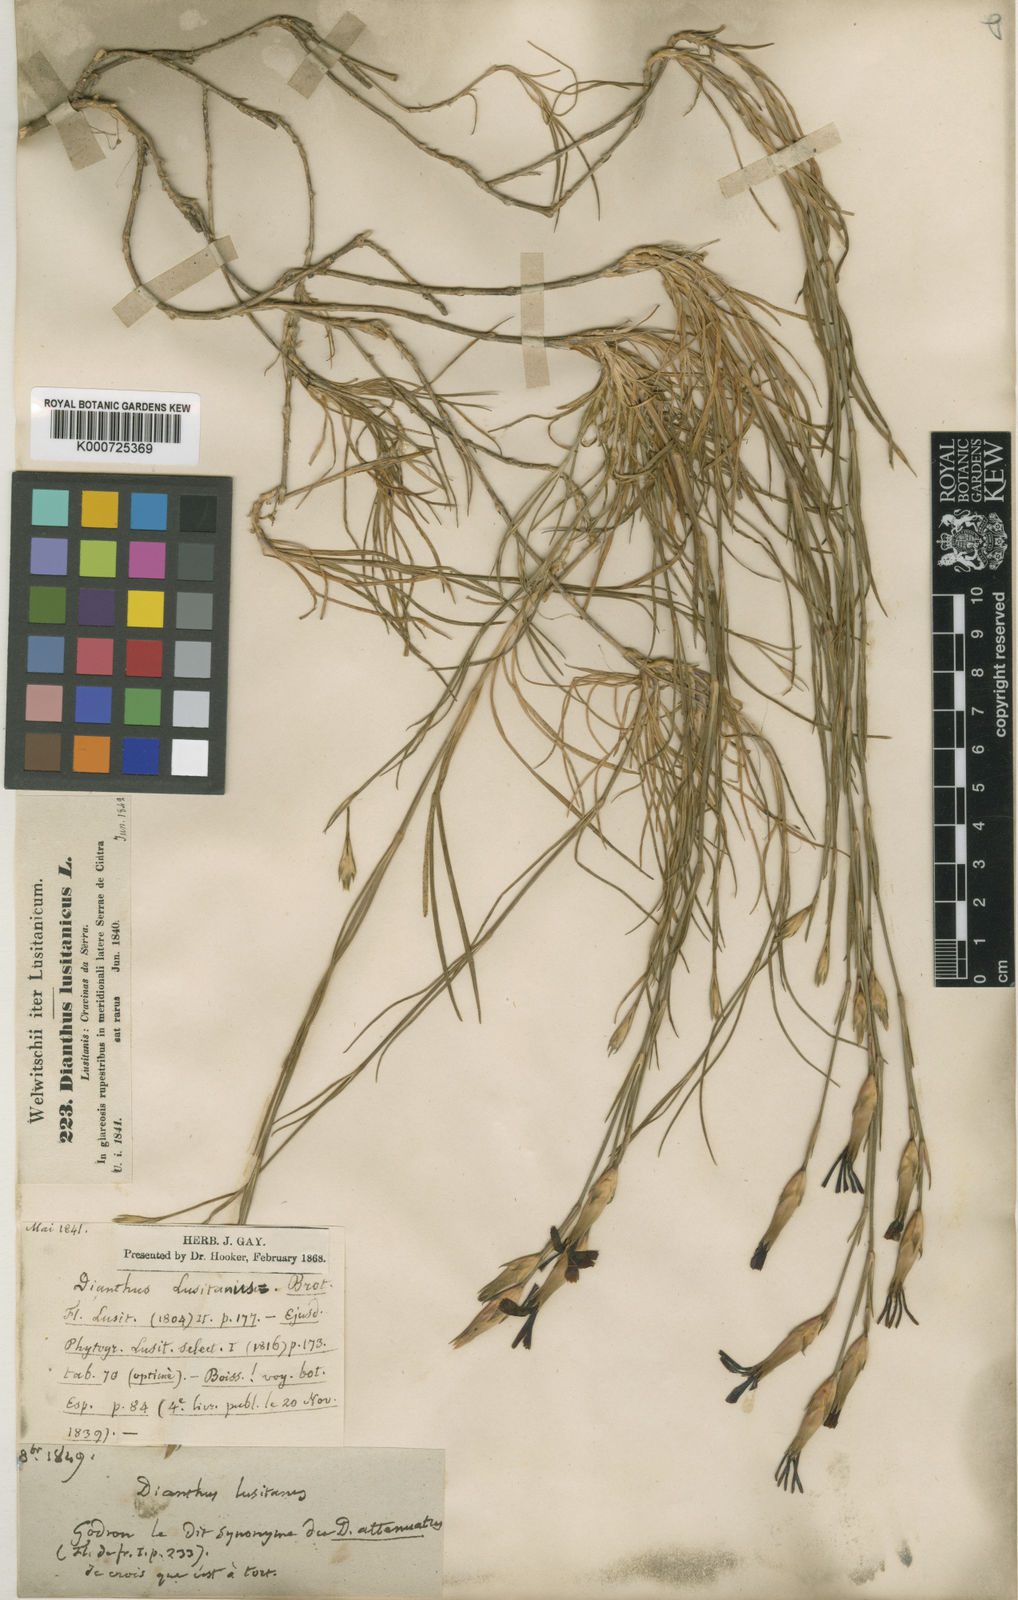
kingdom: Plantae
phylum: Tracheophyta
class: Magnoliopsida
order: Caryophyllales
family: Caryophyllaceae
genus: Dianthus
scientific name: Dianthus cintranus
